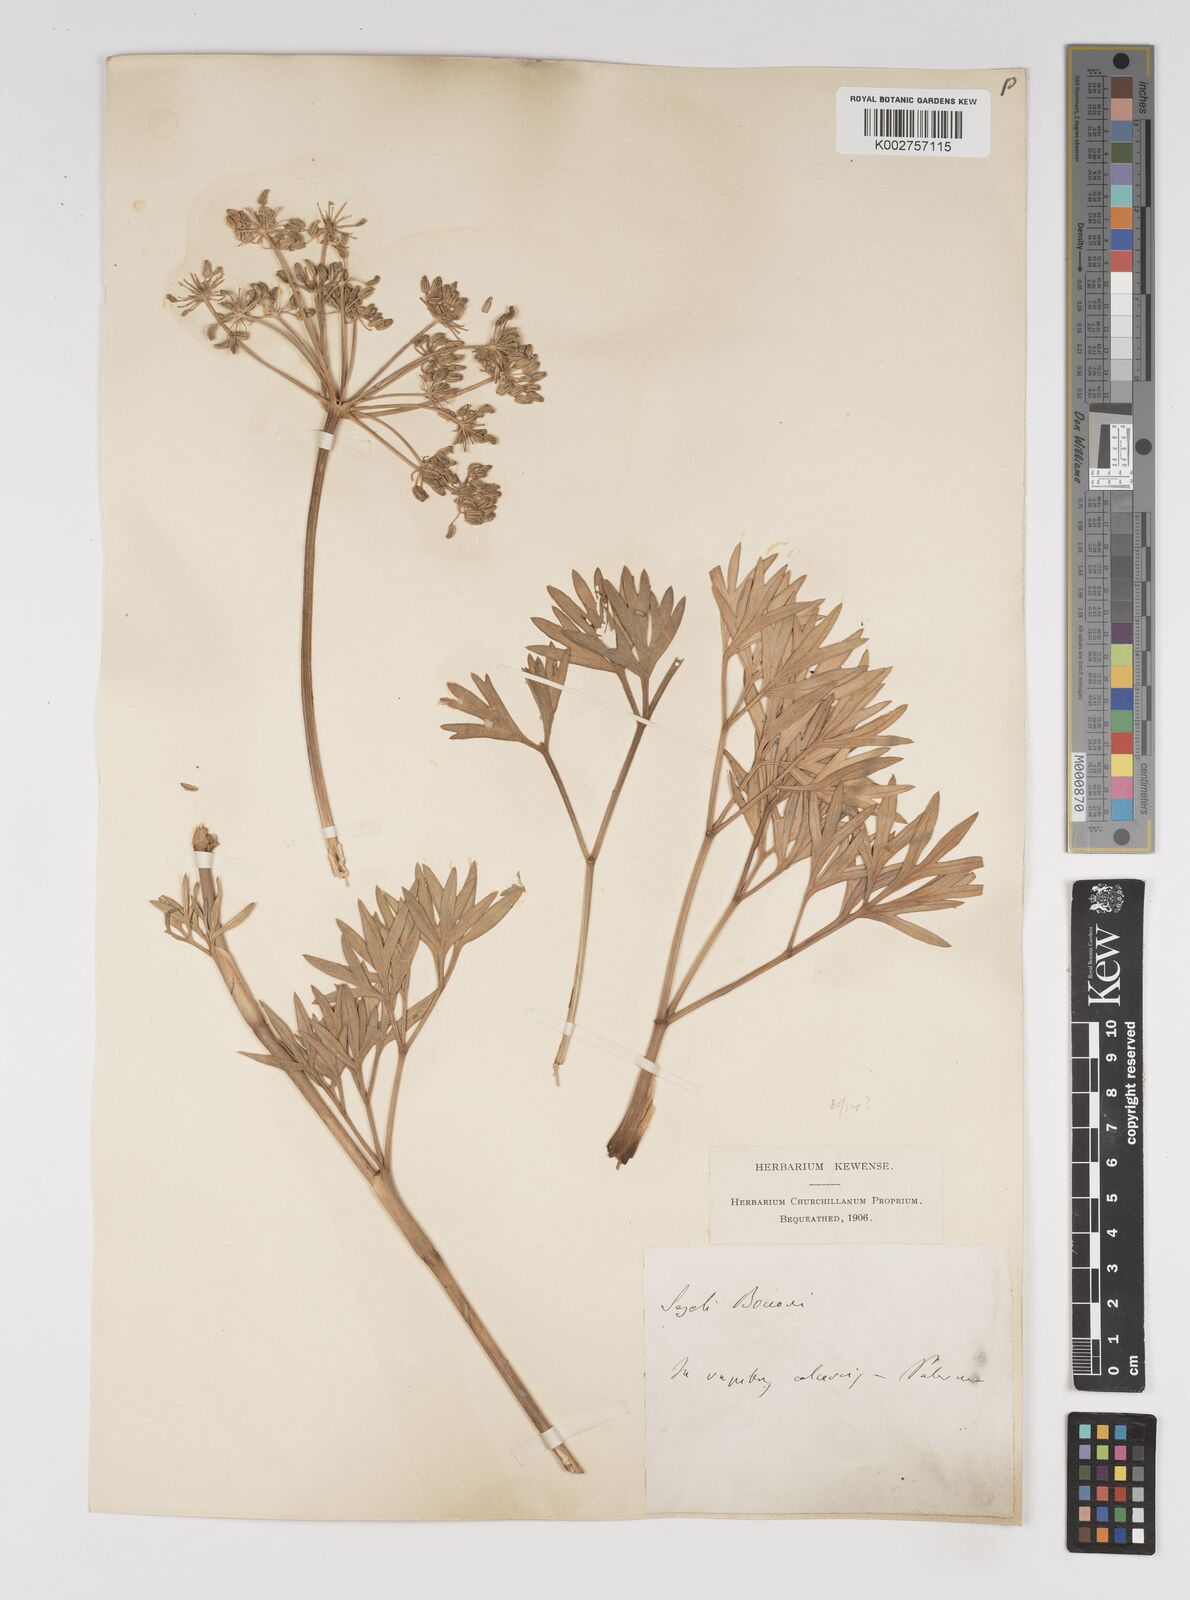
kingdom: Plantae
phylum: Tracheophyta
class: Magnoliopsida
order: Apiales
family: Apiaceae
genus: Seseli
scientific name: Seseli bocconei
